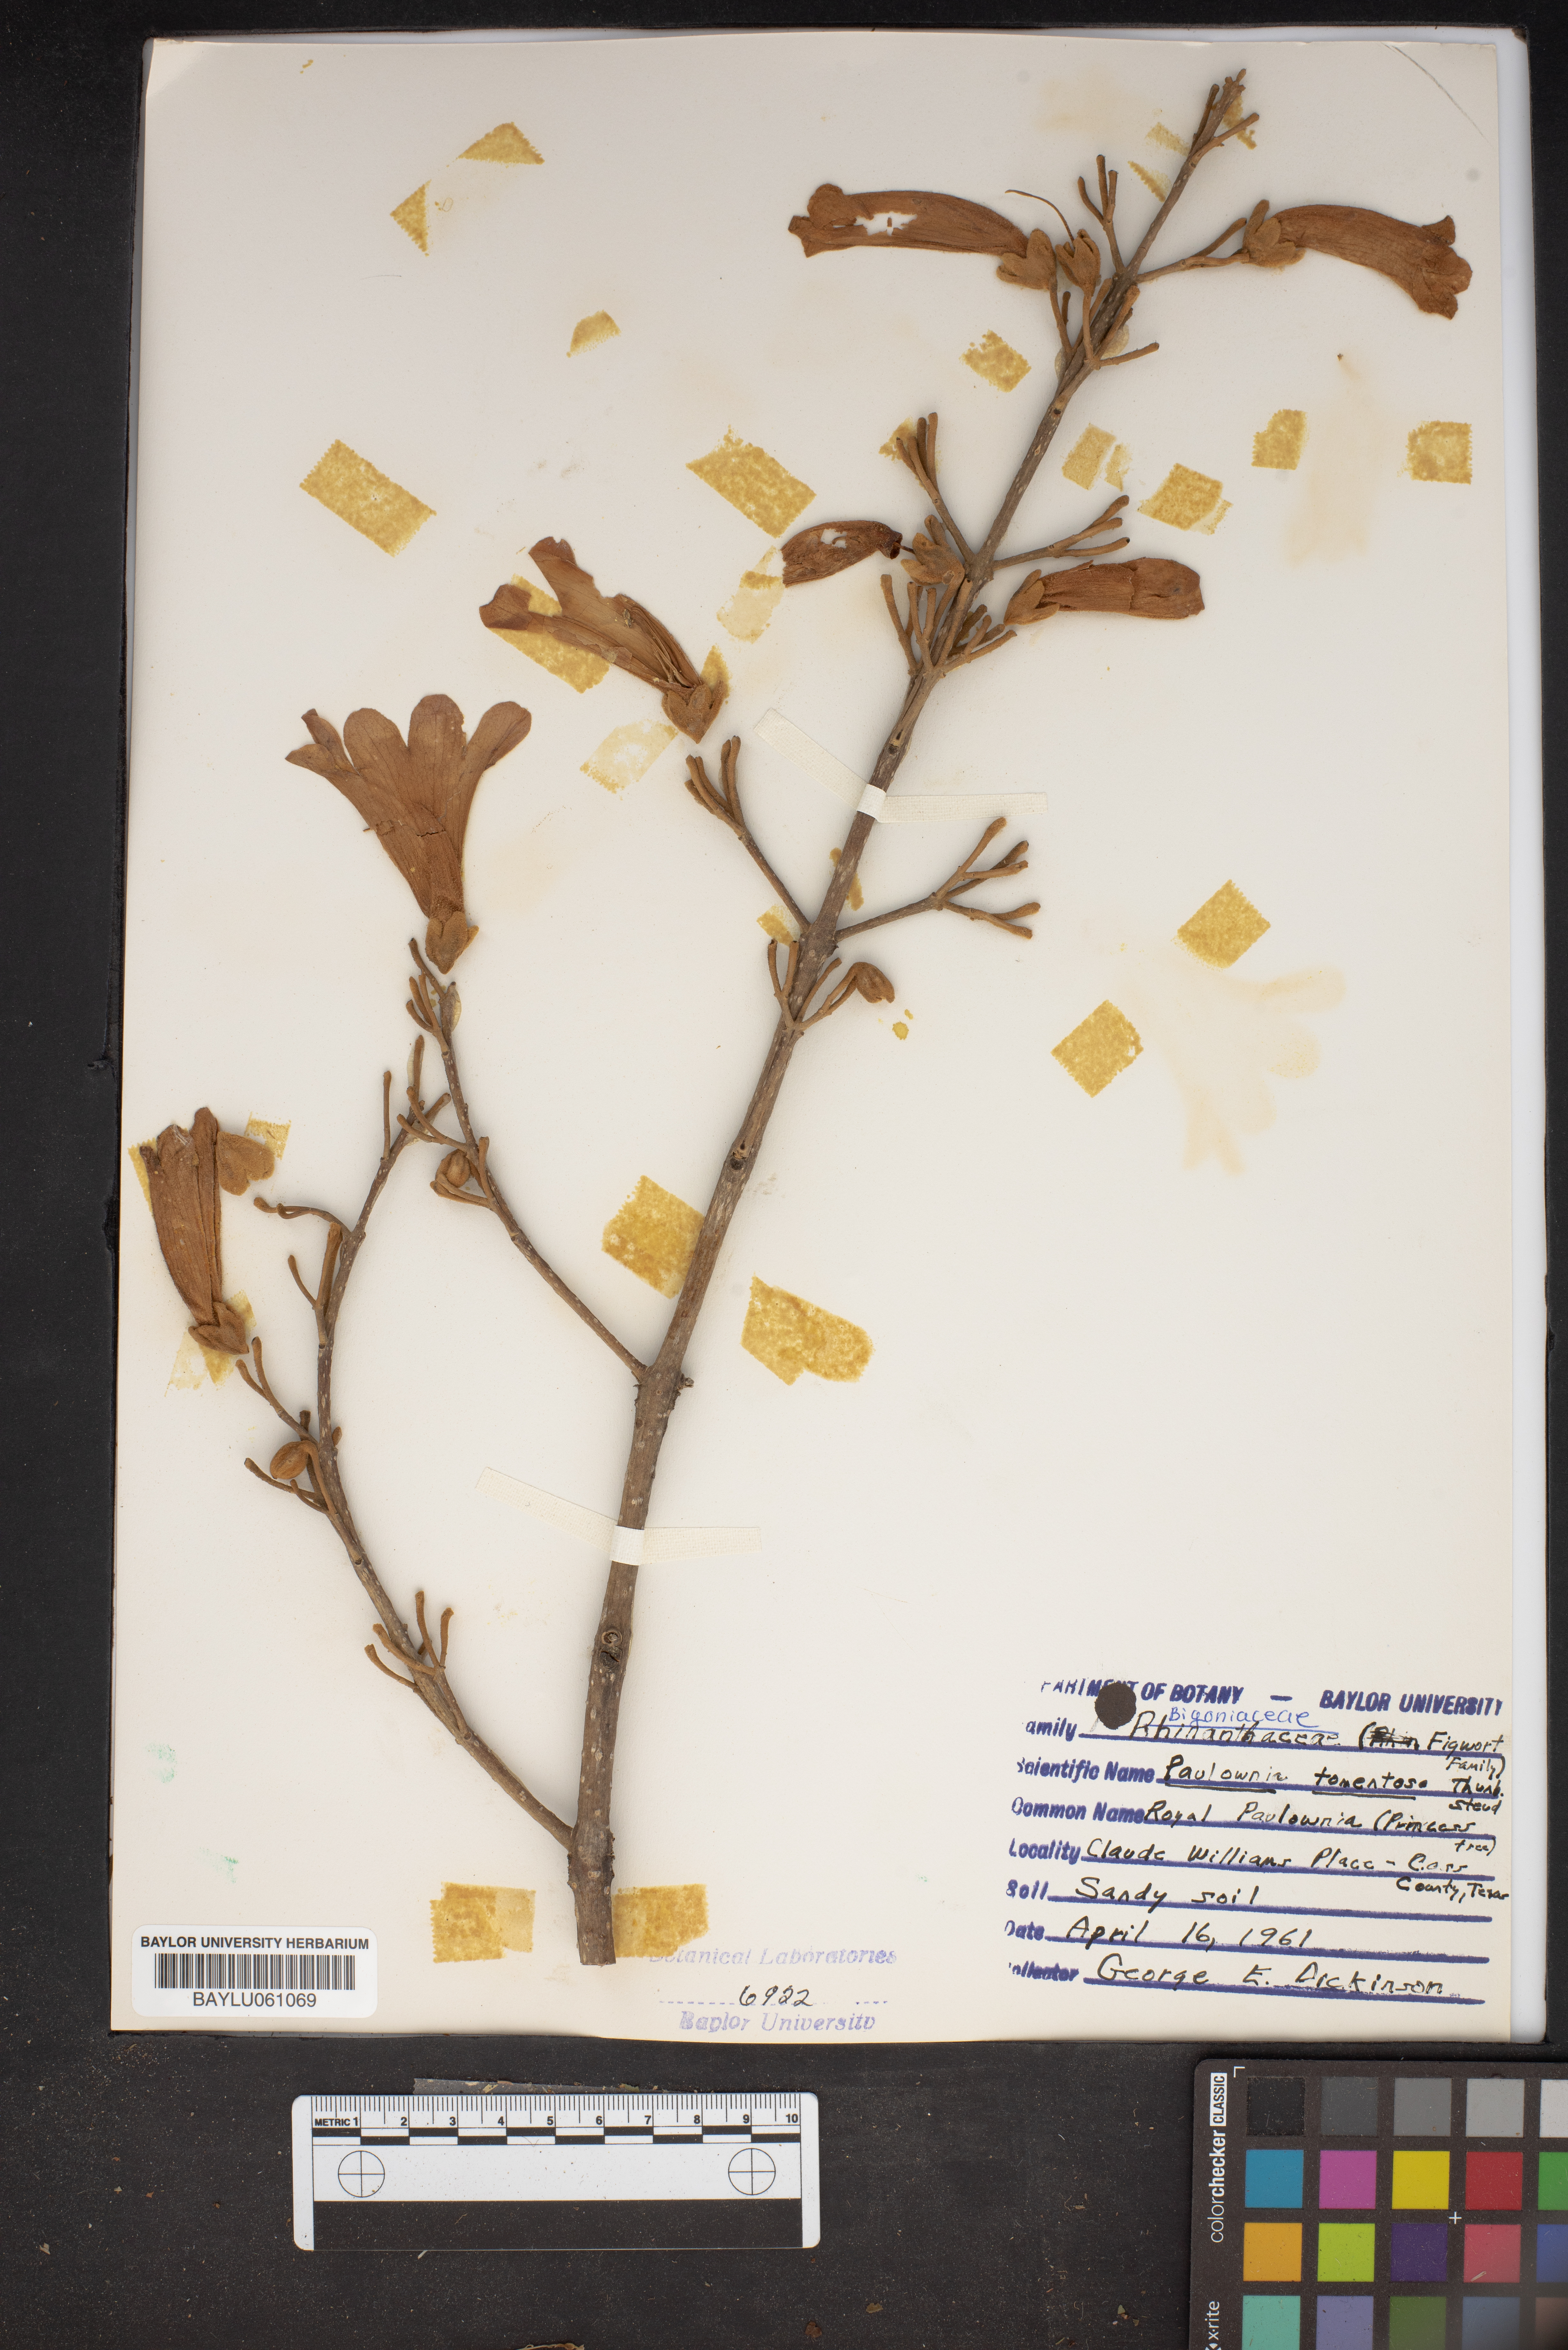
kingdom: Plantae
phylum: Tracheophyta
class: Magnoliopsida
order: Lamiales
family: Paulowniaceae
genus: Paulownia
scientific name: Paulownia tomentosa
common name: Foxglove-tree
